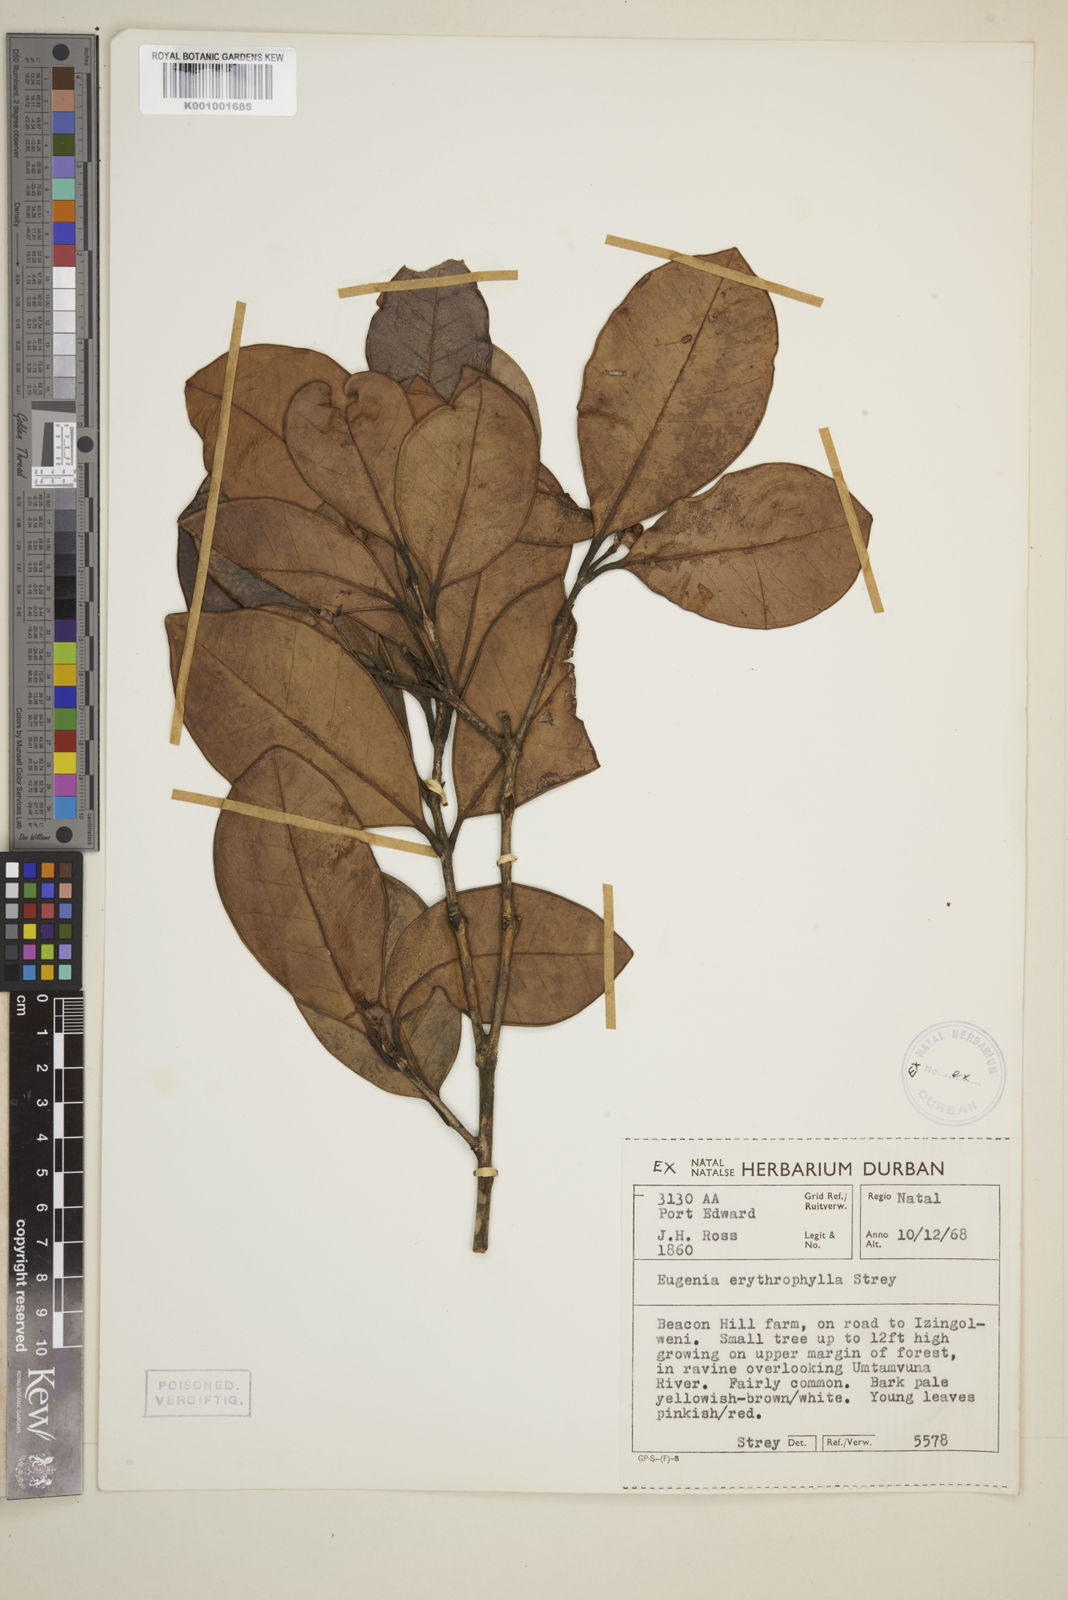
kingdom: Plantae
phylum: Tracheophyta
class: Magnoliopsida
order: Myrtales
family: Myrtaceae
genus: Eugenia
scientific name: Eugenia erythrophylla
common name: Large-leaved myrtle
